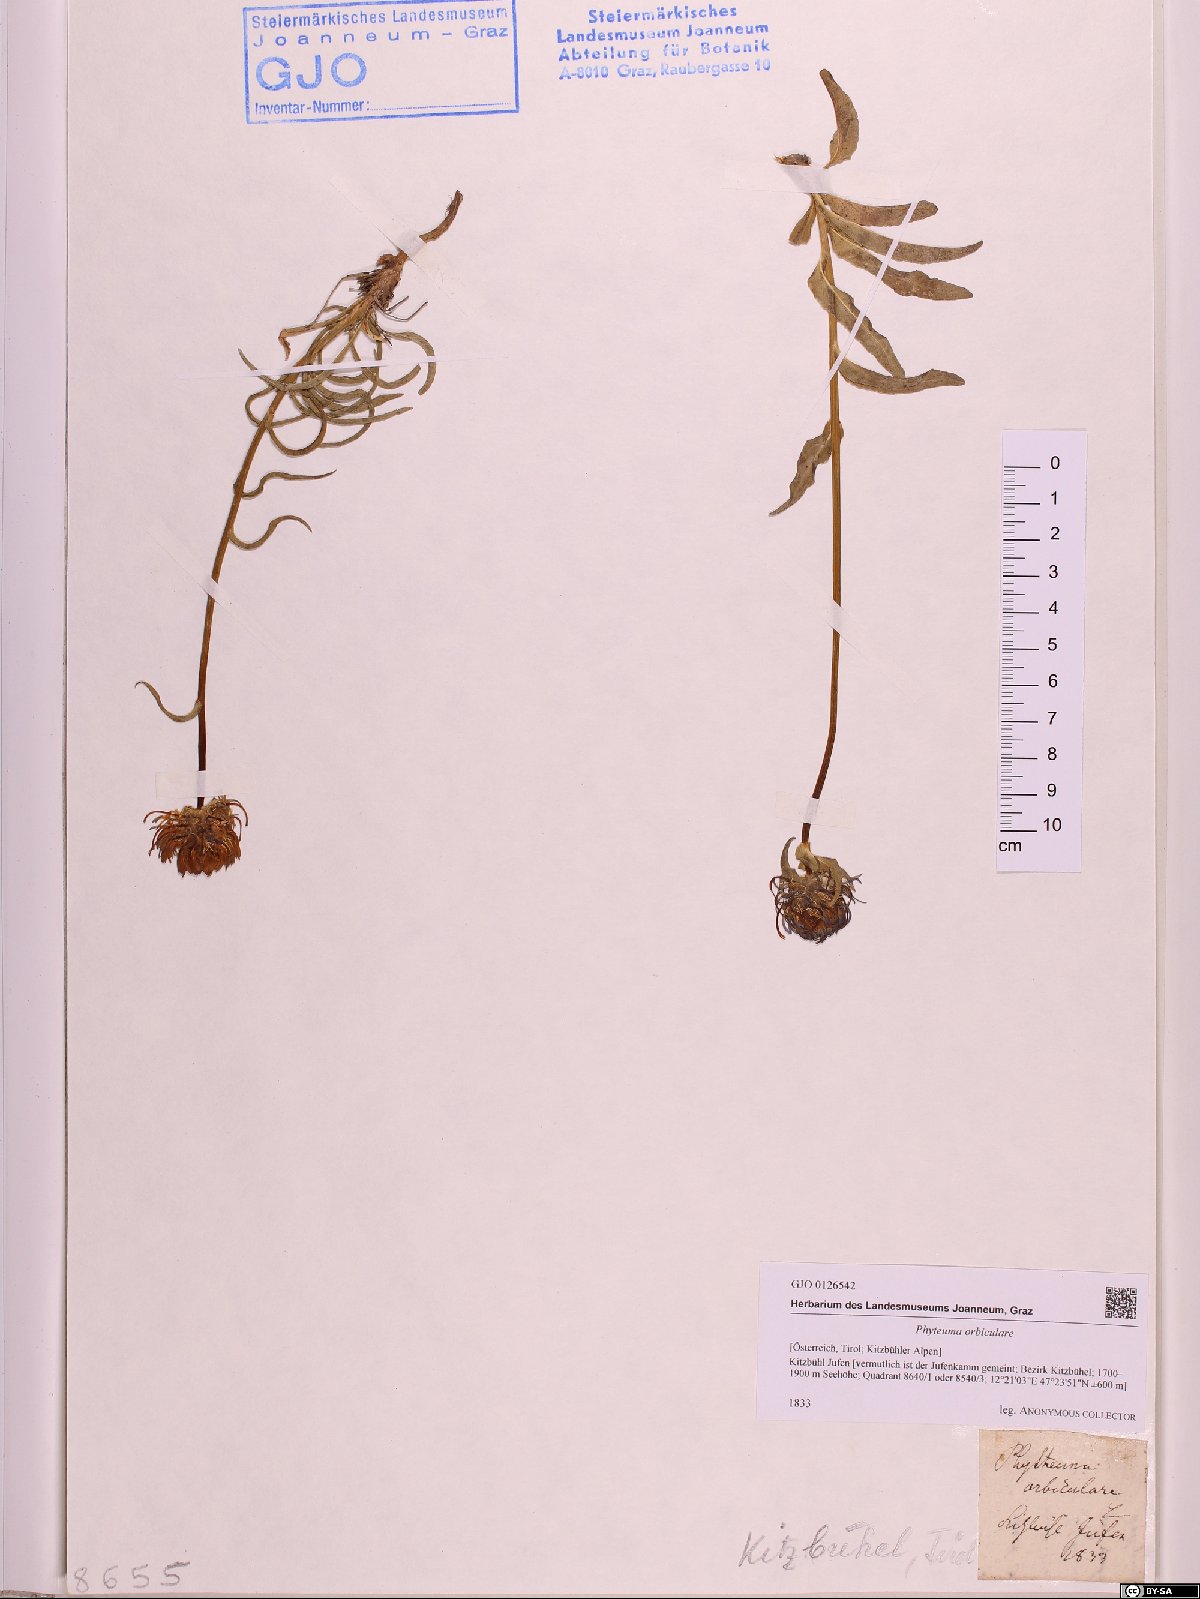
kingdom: Plantae
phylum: Tracheophyta
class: Magnoliopsida
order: Asterales
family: Campanulaceae
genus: Phyteuma
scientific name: Phyteuma orbiculare
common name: Round-headed rampion
